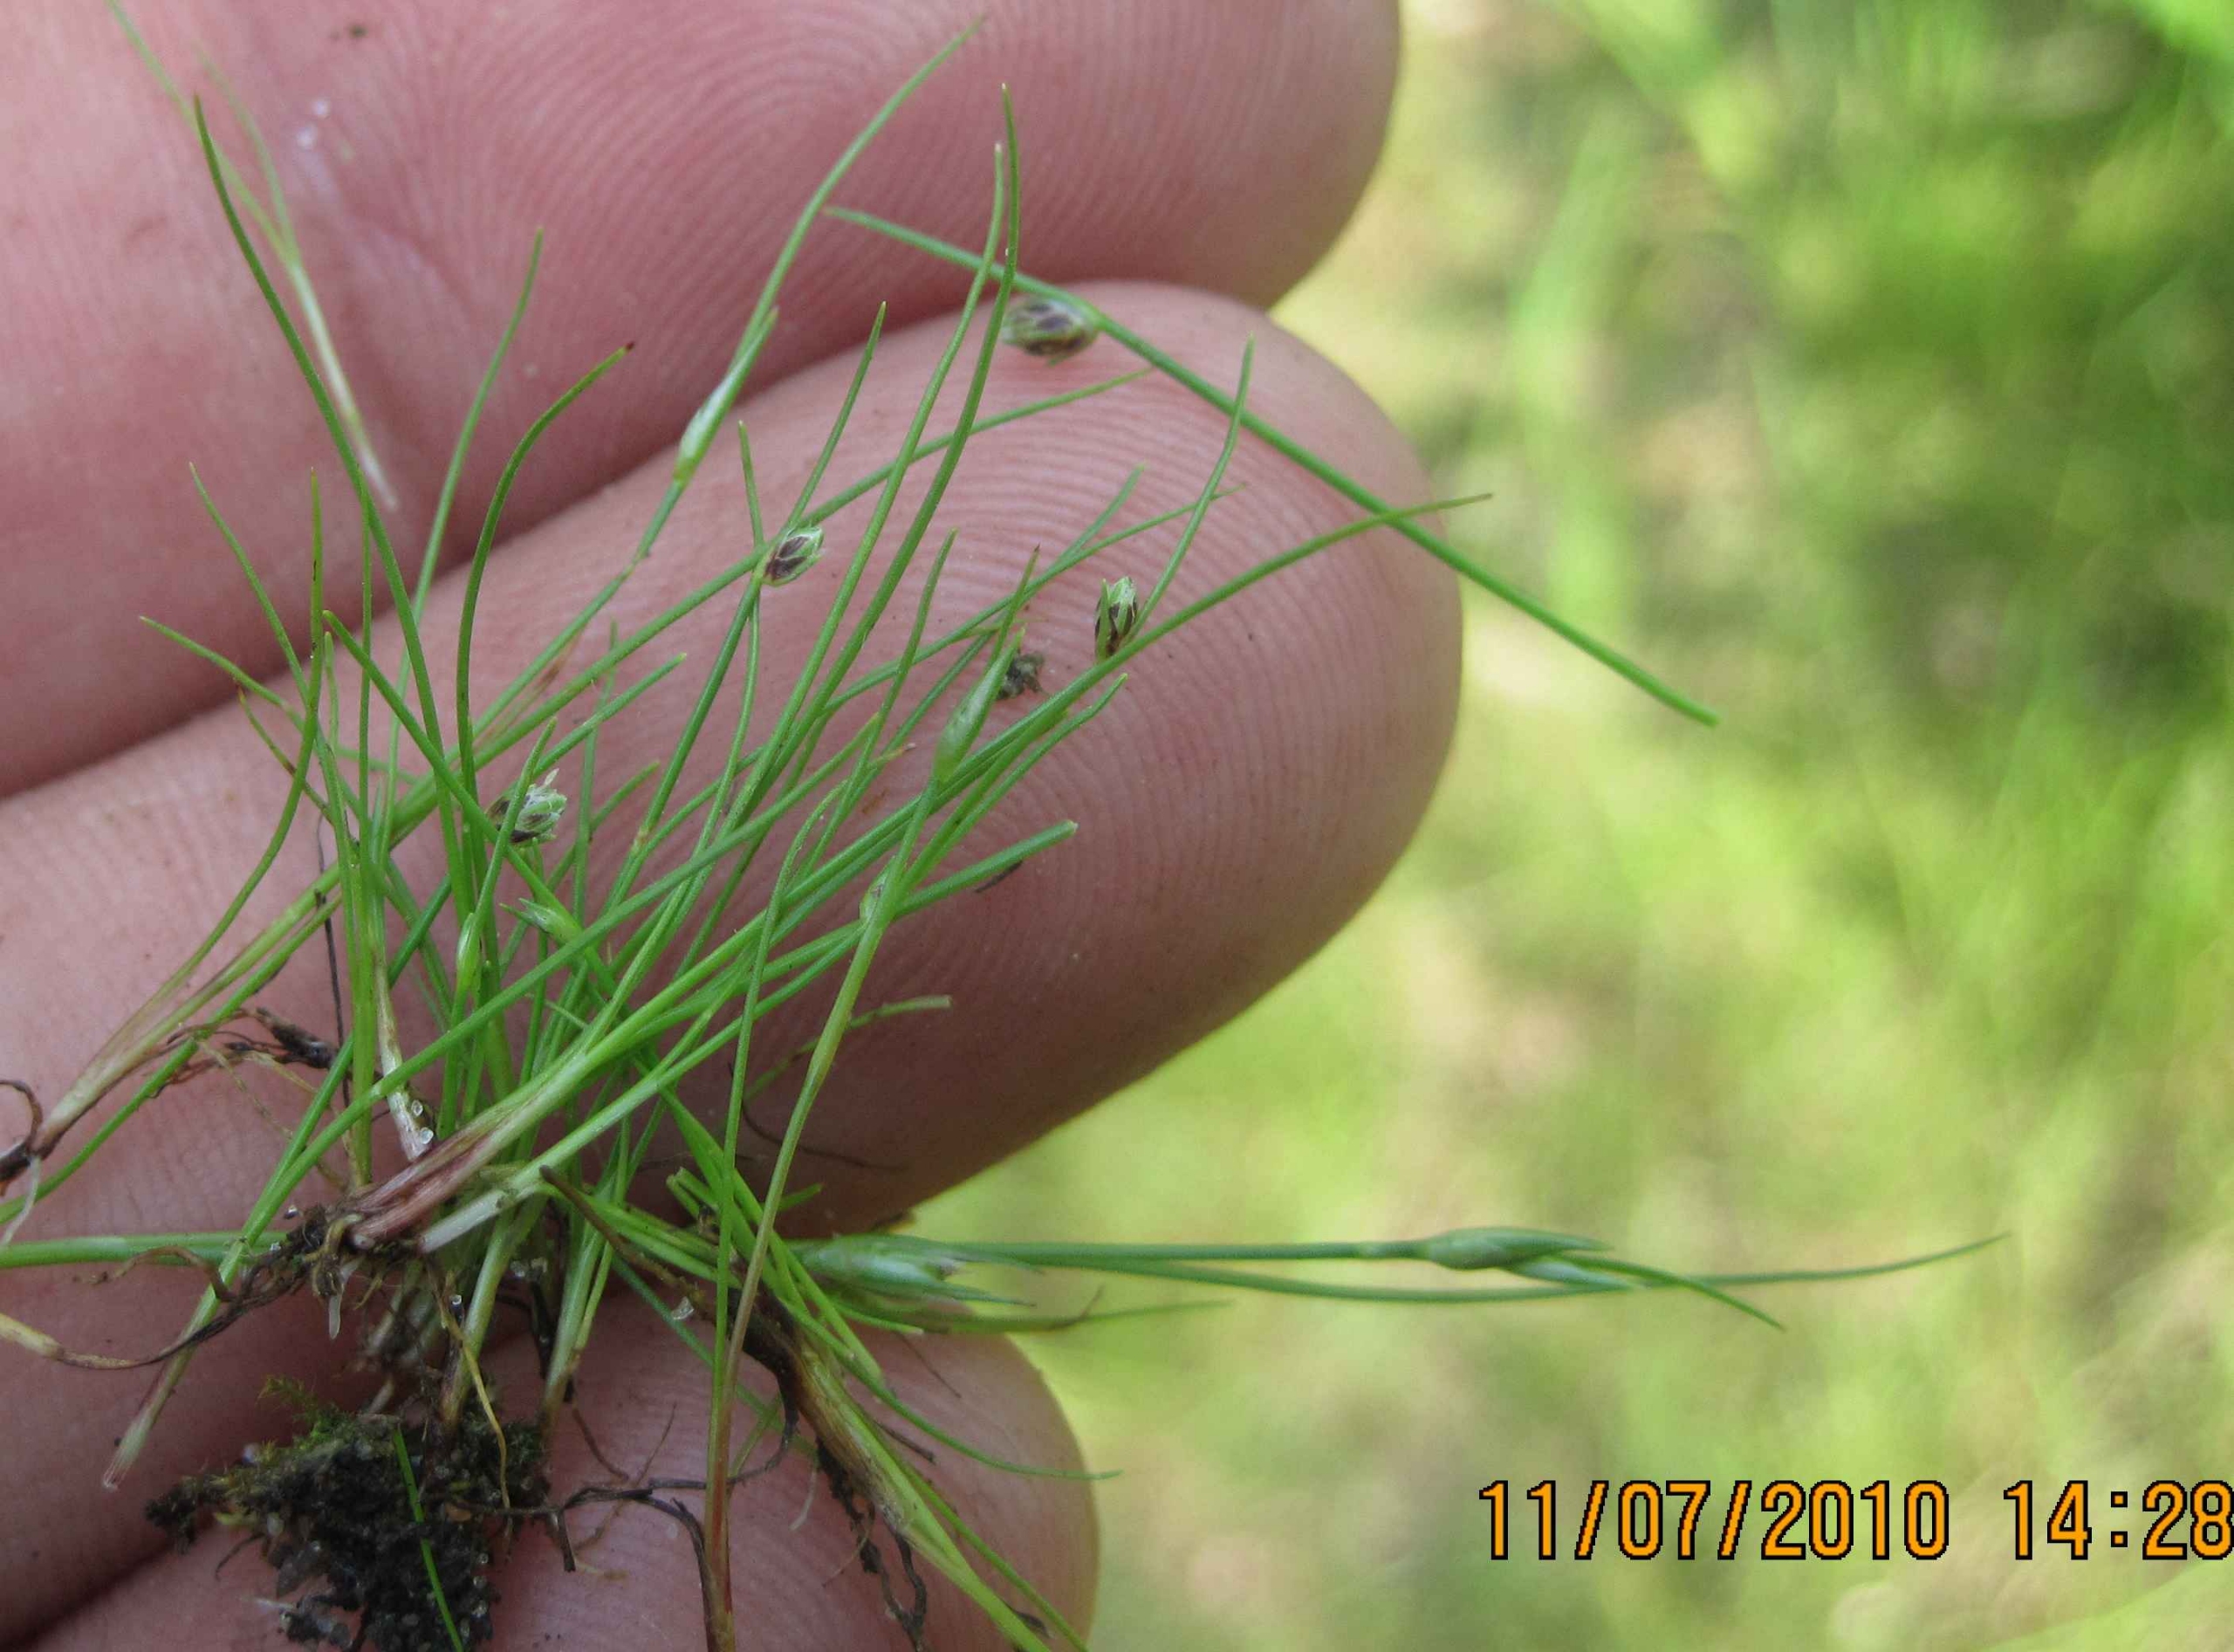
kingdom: Plantae
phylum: Tracheophyta
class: Liliopsida
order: Poales
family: Cyperaceae
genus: Isolepis
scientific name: Isolepis setacea
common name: Børste-kogleaks
